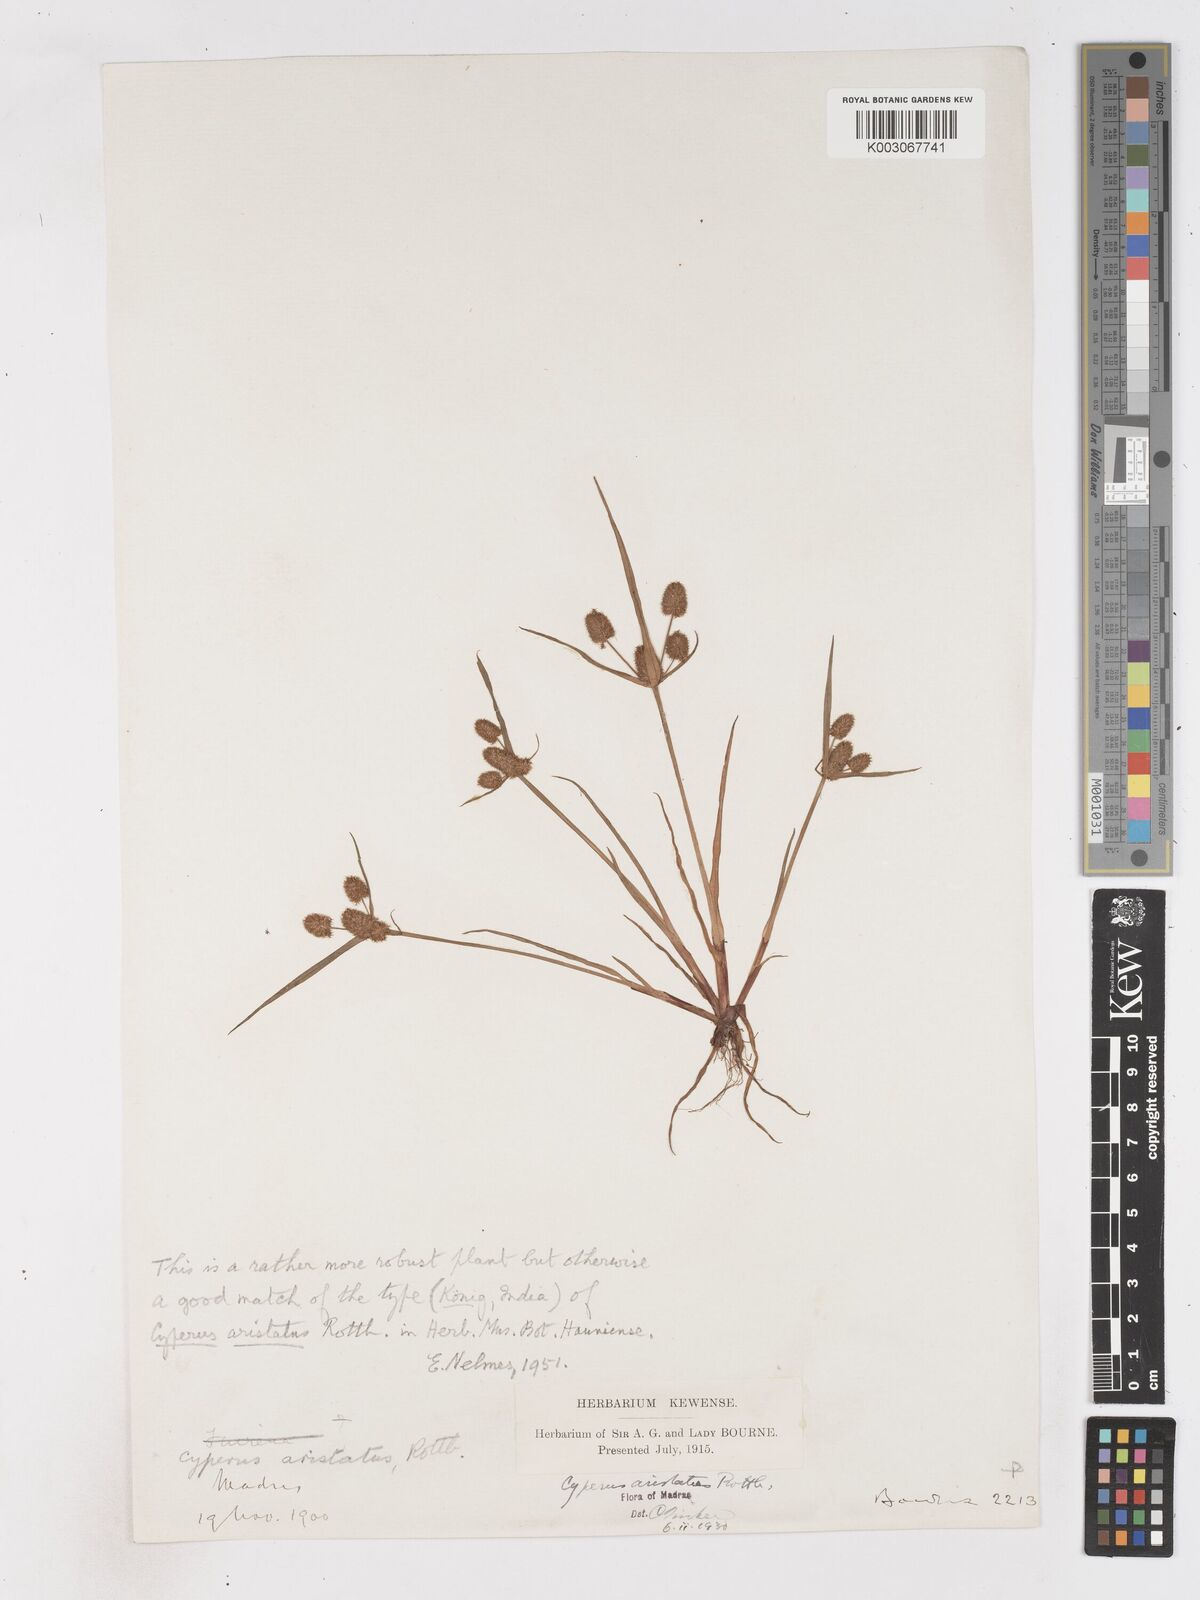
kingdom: Plantae
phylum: Tracheophyta
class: Liliopsida
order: Poales
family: Cyperaceae
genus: Cyperus
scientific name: Cyperus squarrosus
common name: Awned cyperus
